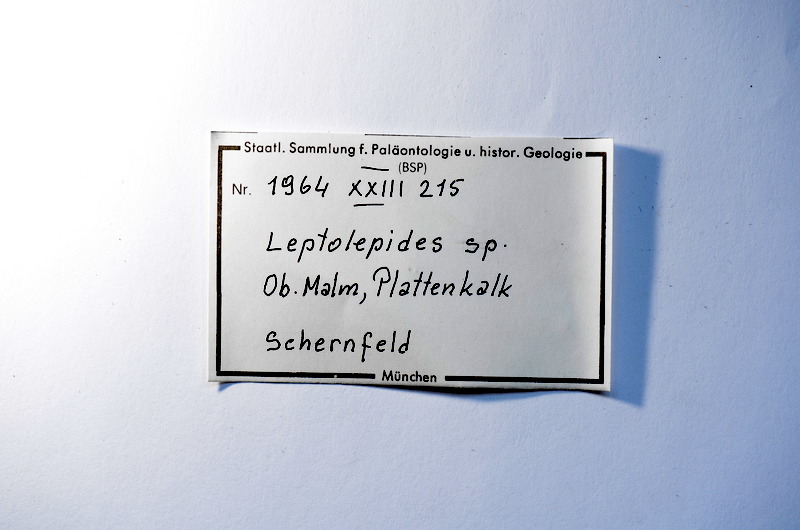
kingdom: Animalia
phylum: Chordata
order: Salmoniformes
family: Orthogonikleithridae
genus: Leptolepides
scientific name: Leptolepides
